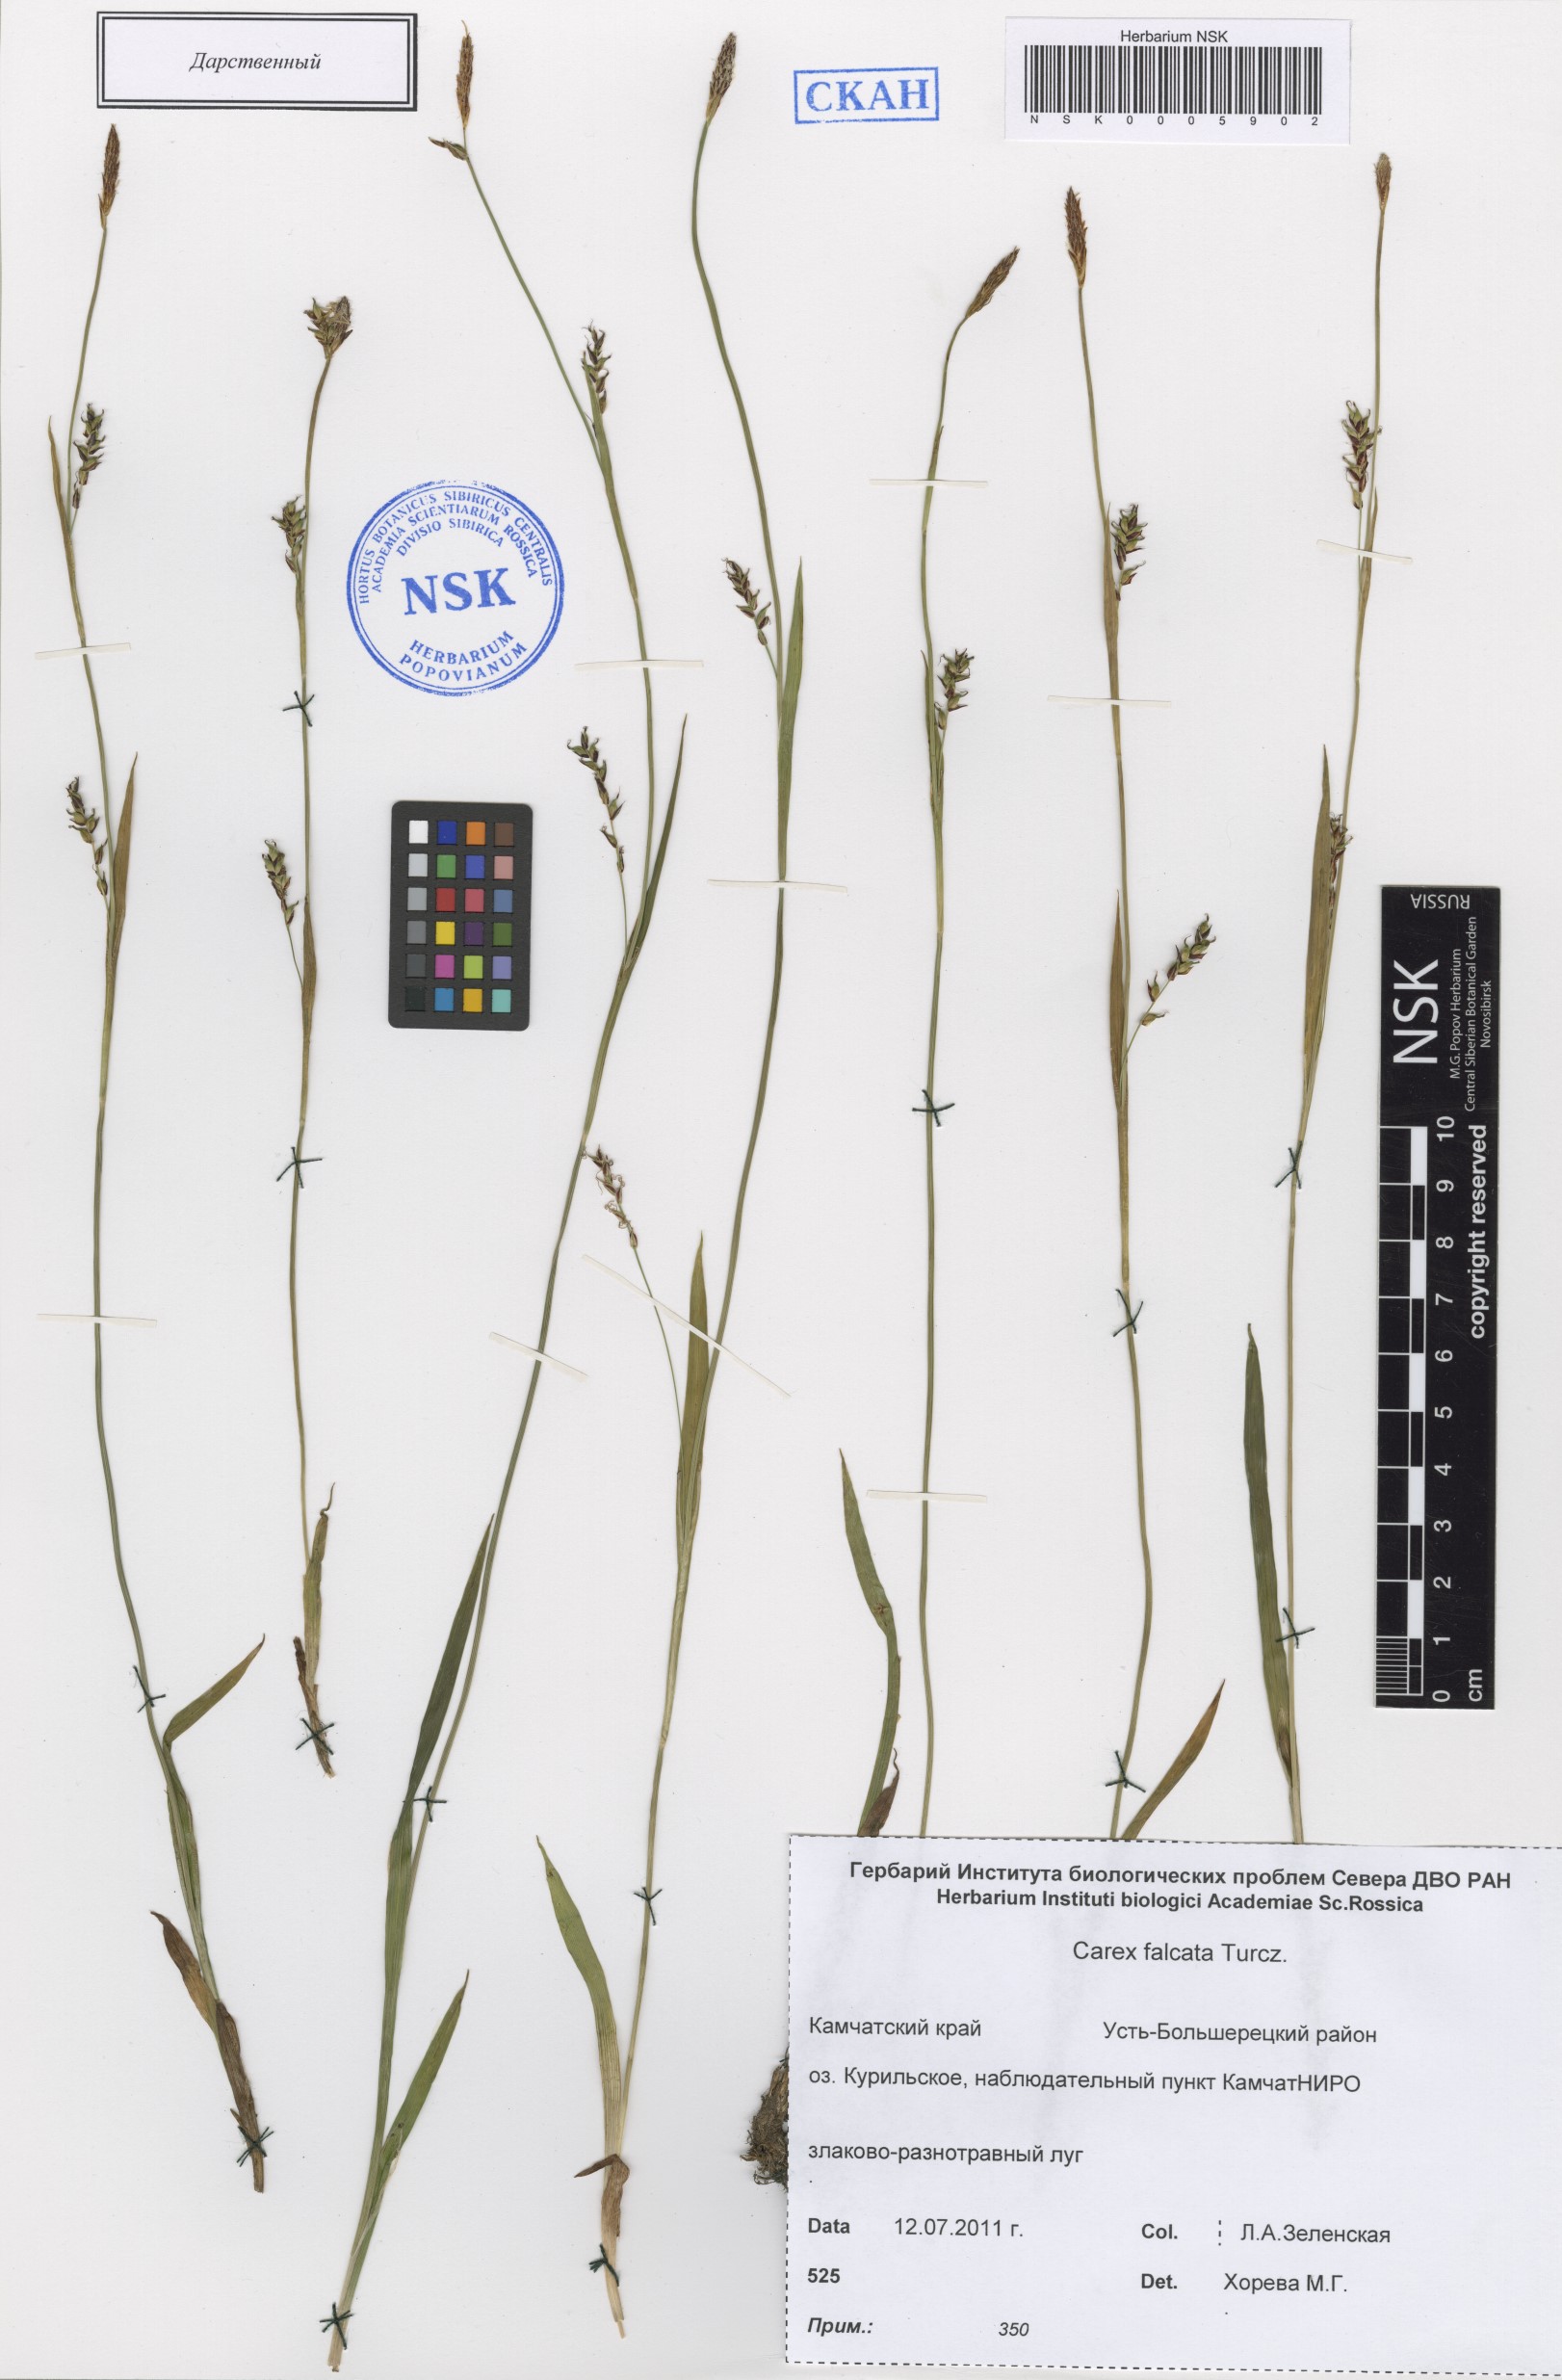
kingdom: Plantae
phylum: Tracheophyta
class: Liliopsida
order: Poales
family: Cyperaceae
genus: Carex
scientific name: Carex vaginata
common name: Sheathed sedge
